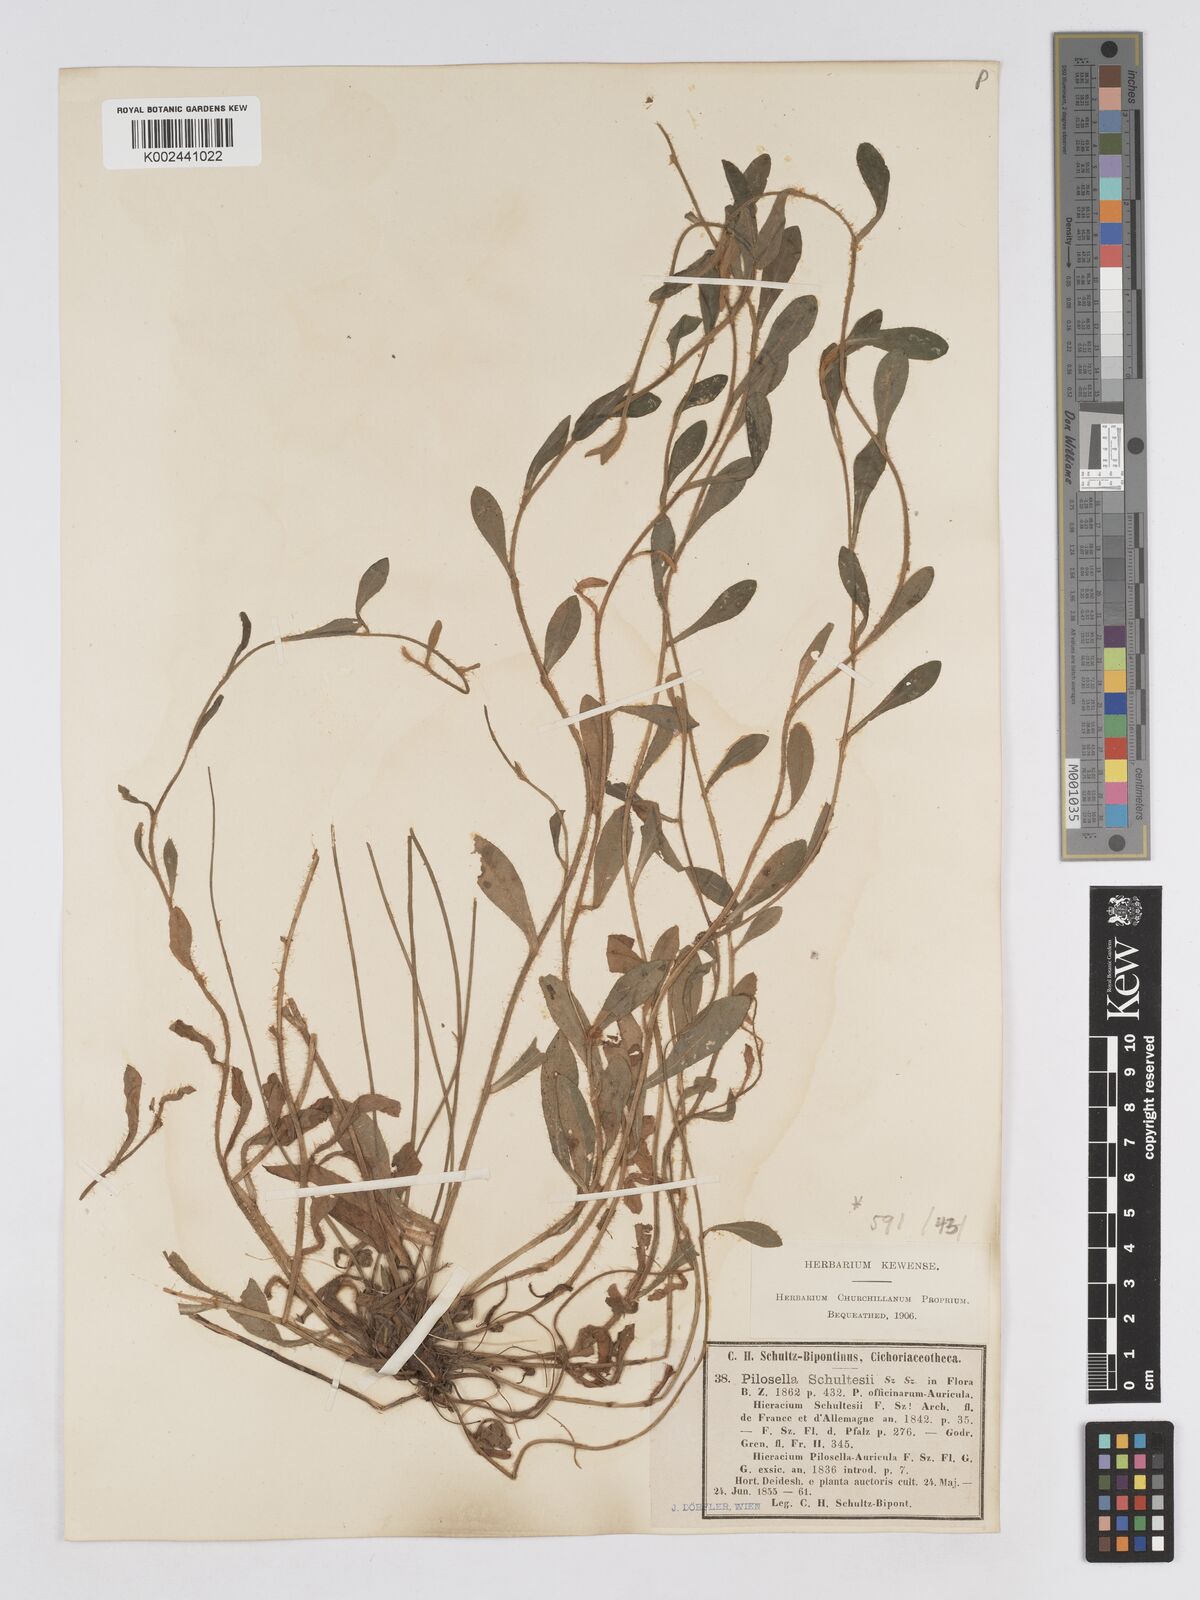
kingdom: Plantae
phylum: Tracheophyta
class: Magnoliopsida
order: Asterales
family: Asteraceae
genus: Pilosella
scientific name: Pilosella schultesii
